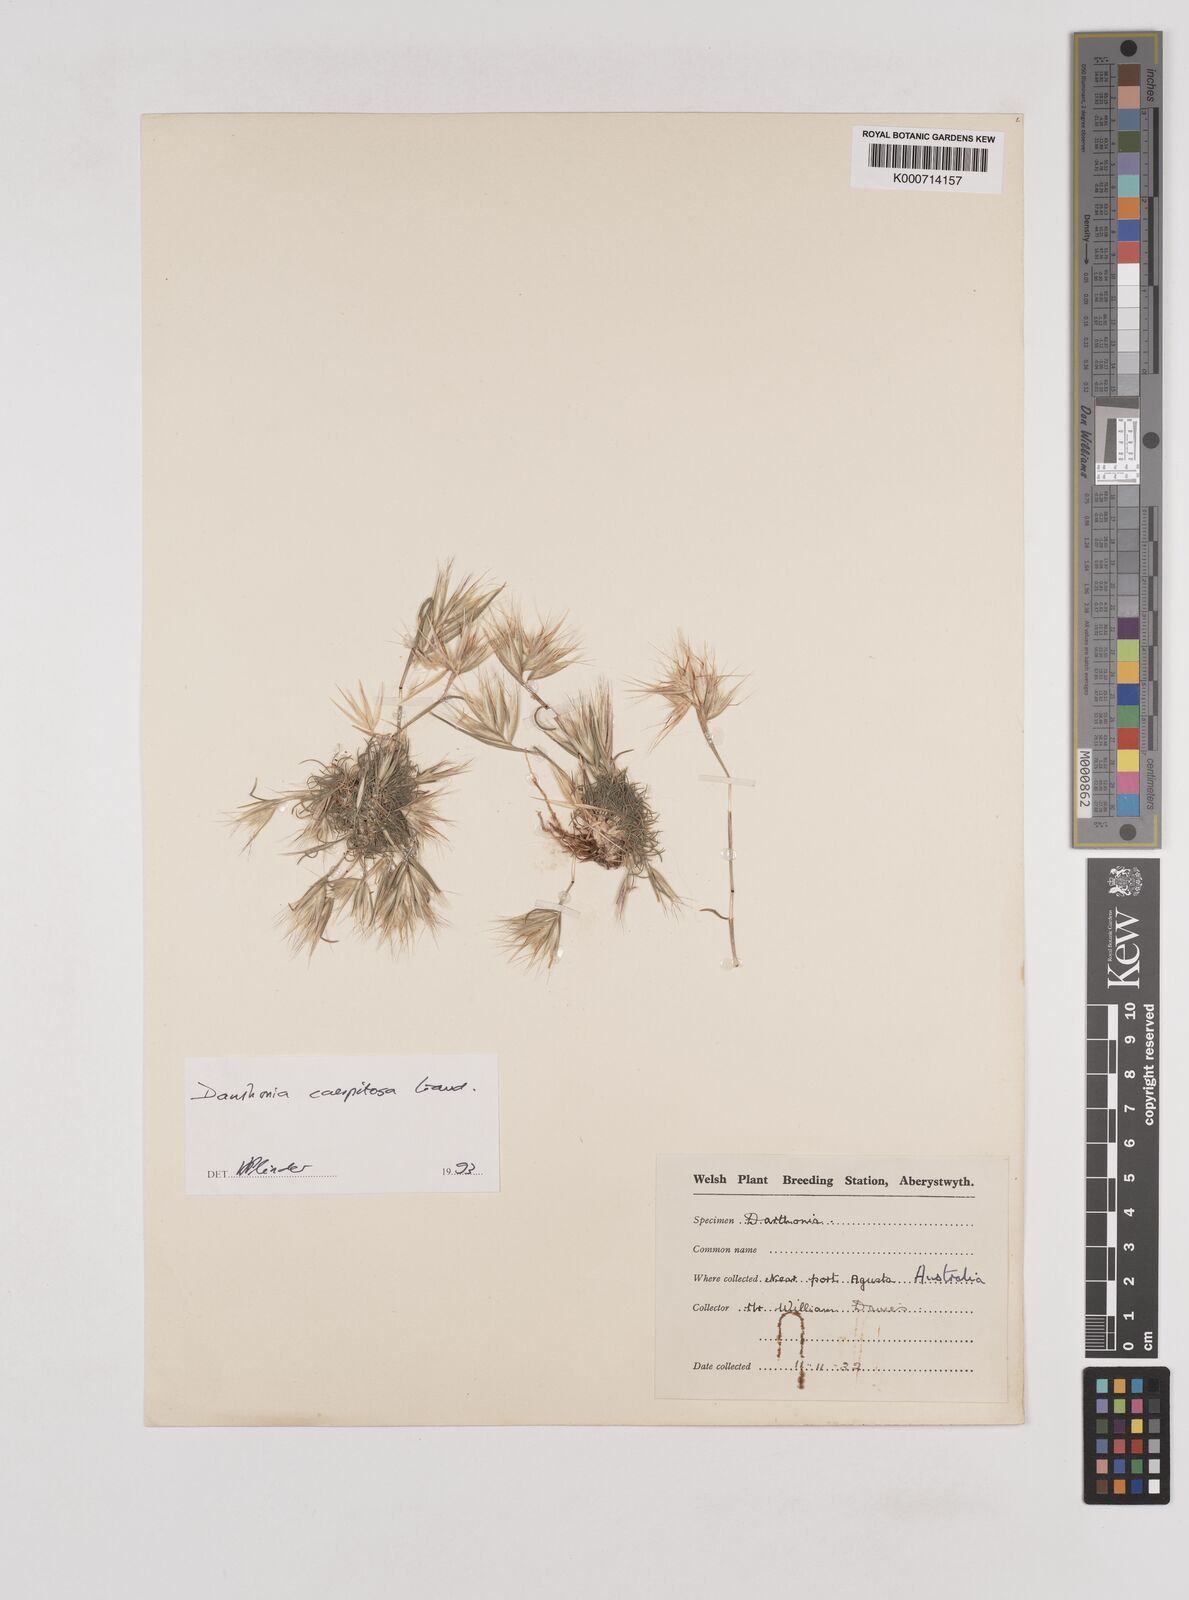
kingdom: Plantae
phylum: Tracheophyta
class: Liliopsida
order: Poales
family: Poaceae
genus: Rytidosperma
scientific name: Rytidosperma
